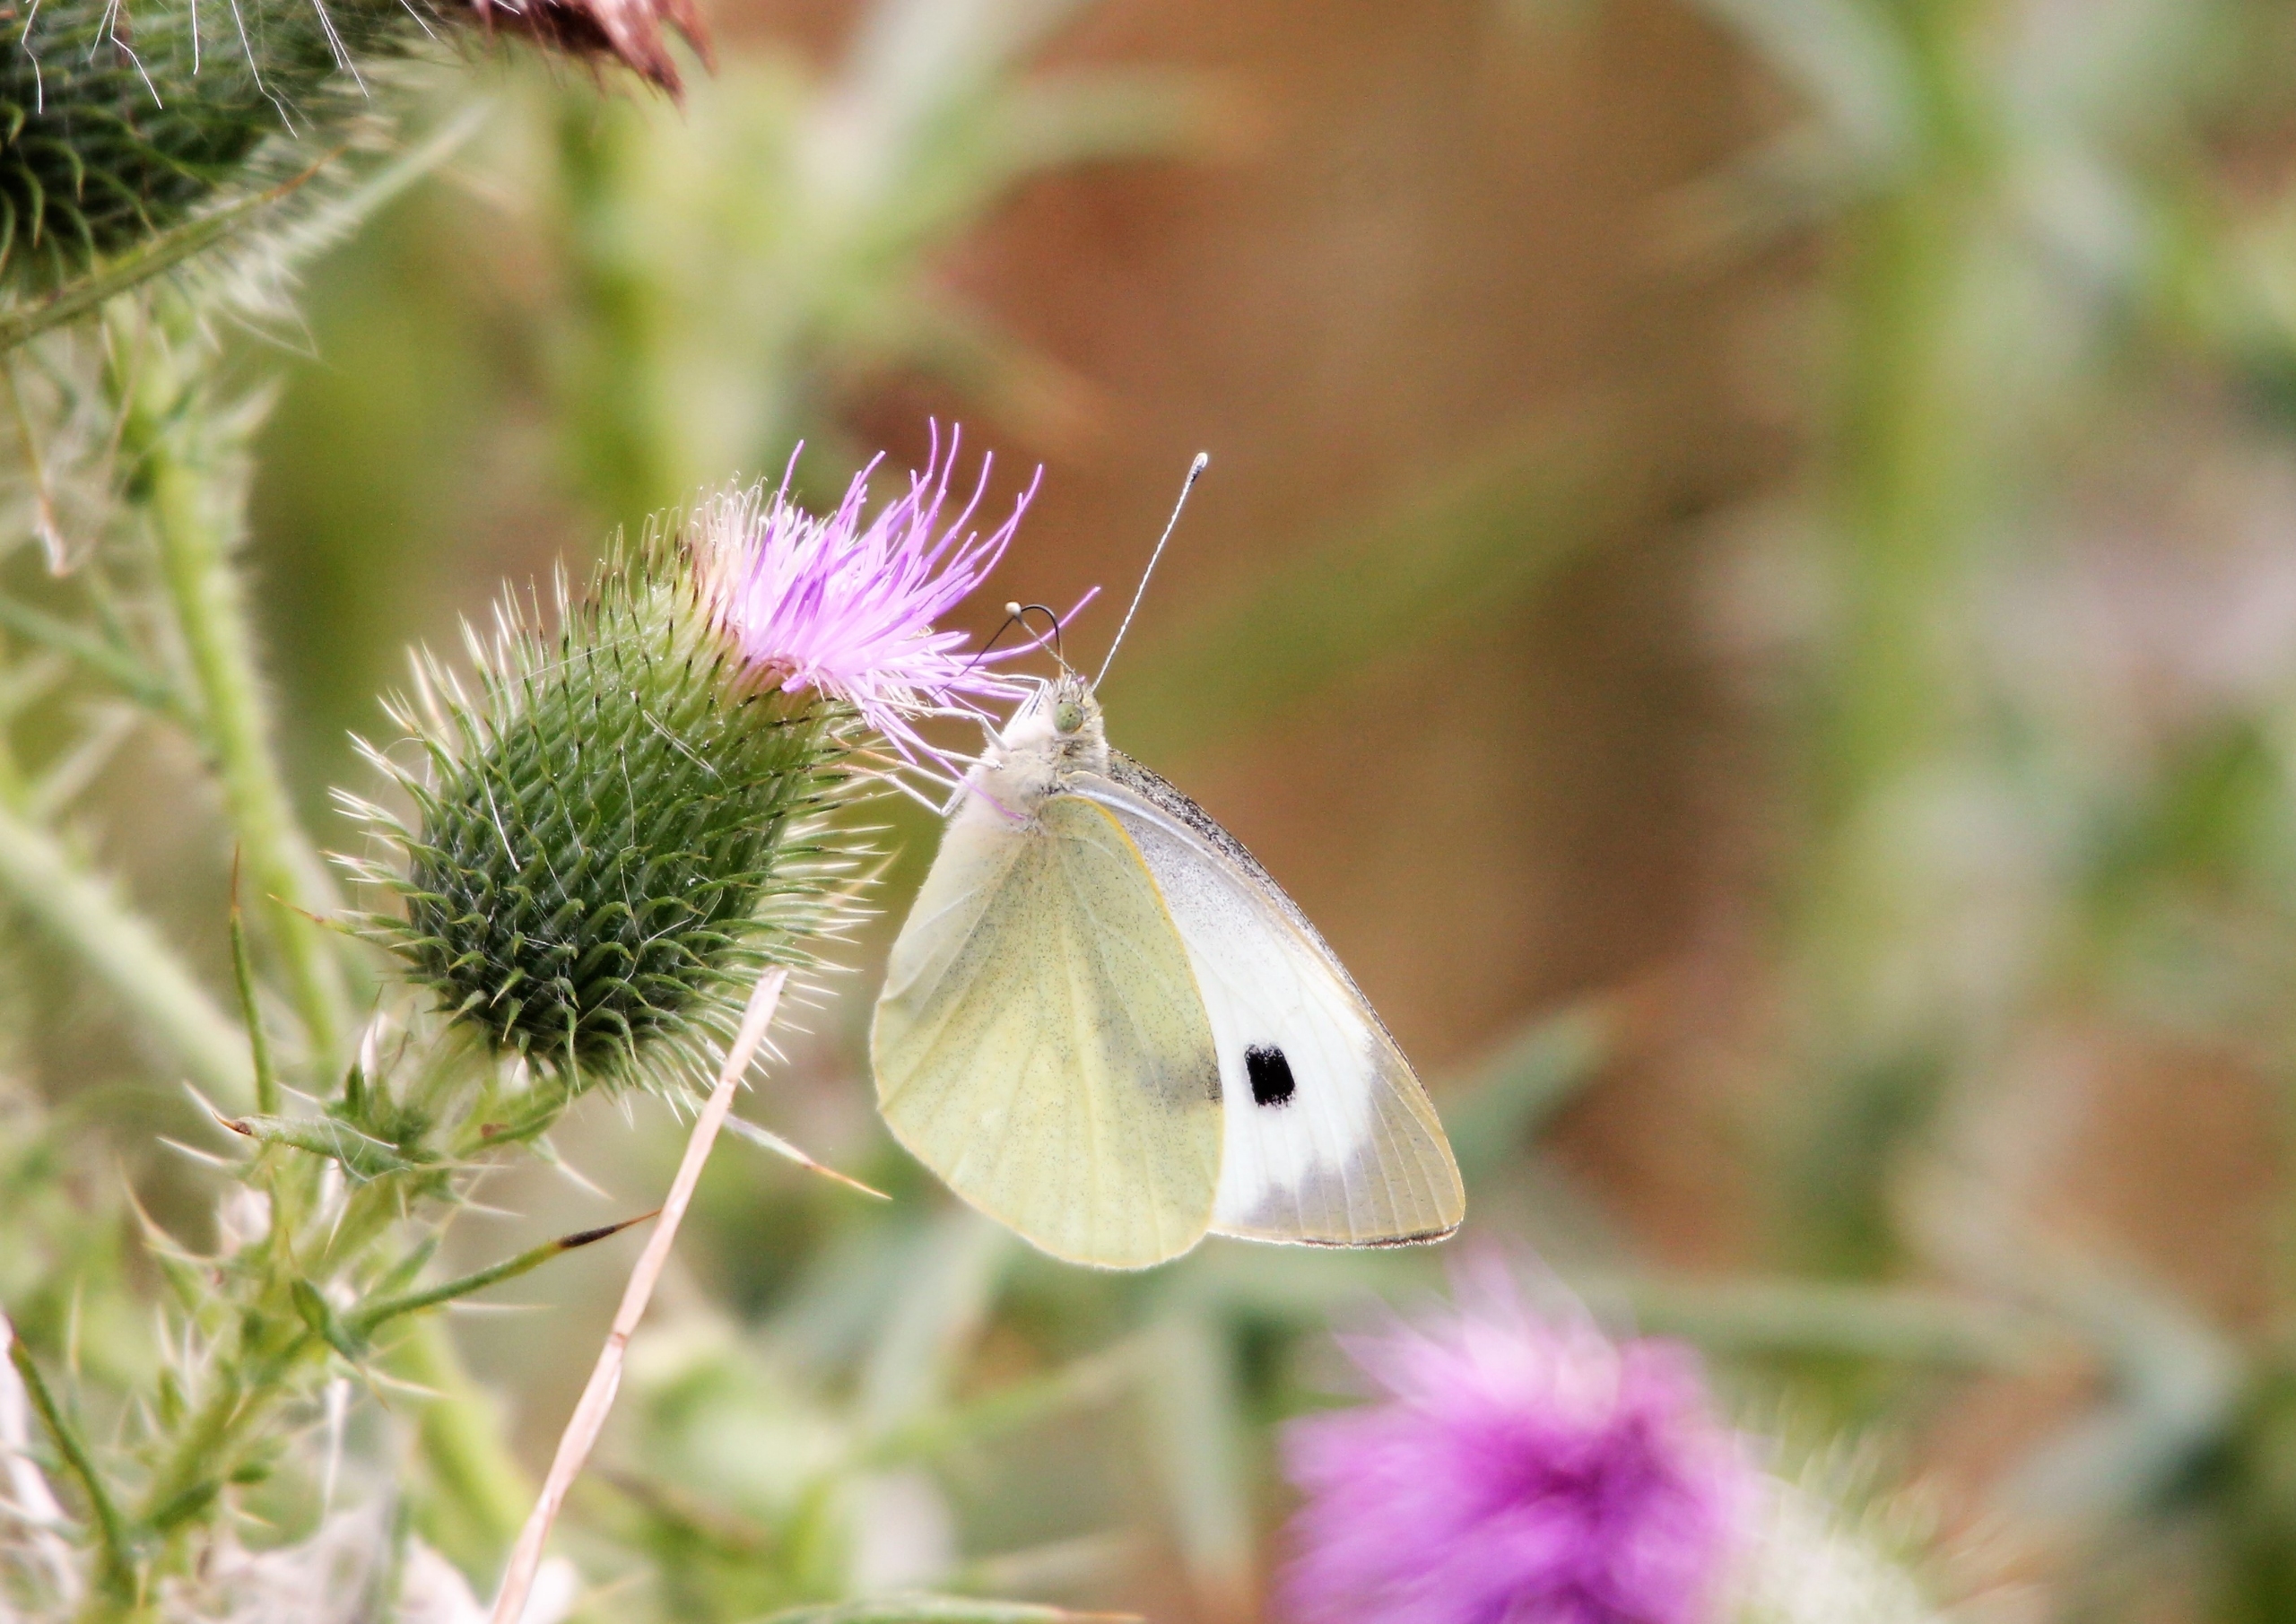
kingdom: Animalia
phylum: Arthropoda
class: Insecta
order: Lepidoptera
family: Pieridae
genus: Pieris
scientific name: Pieris brassicae
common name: Stor kålsommerfugl
